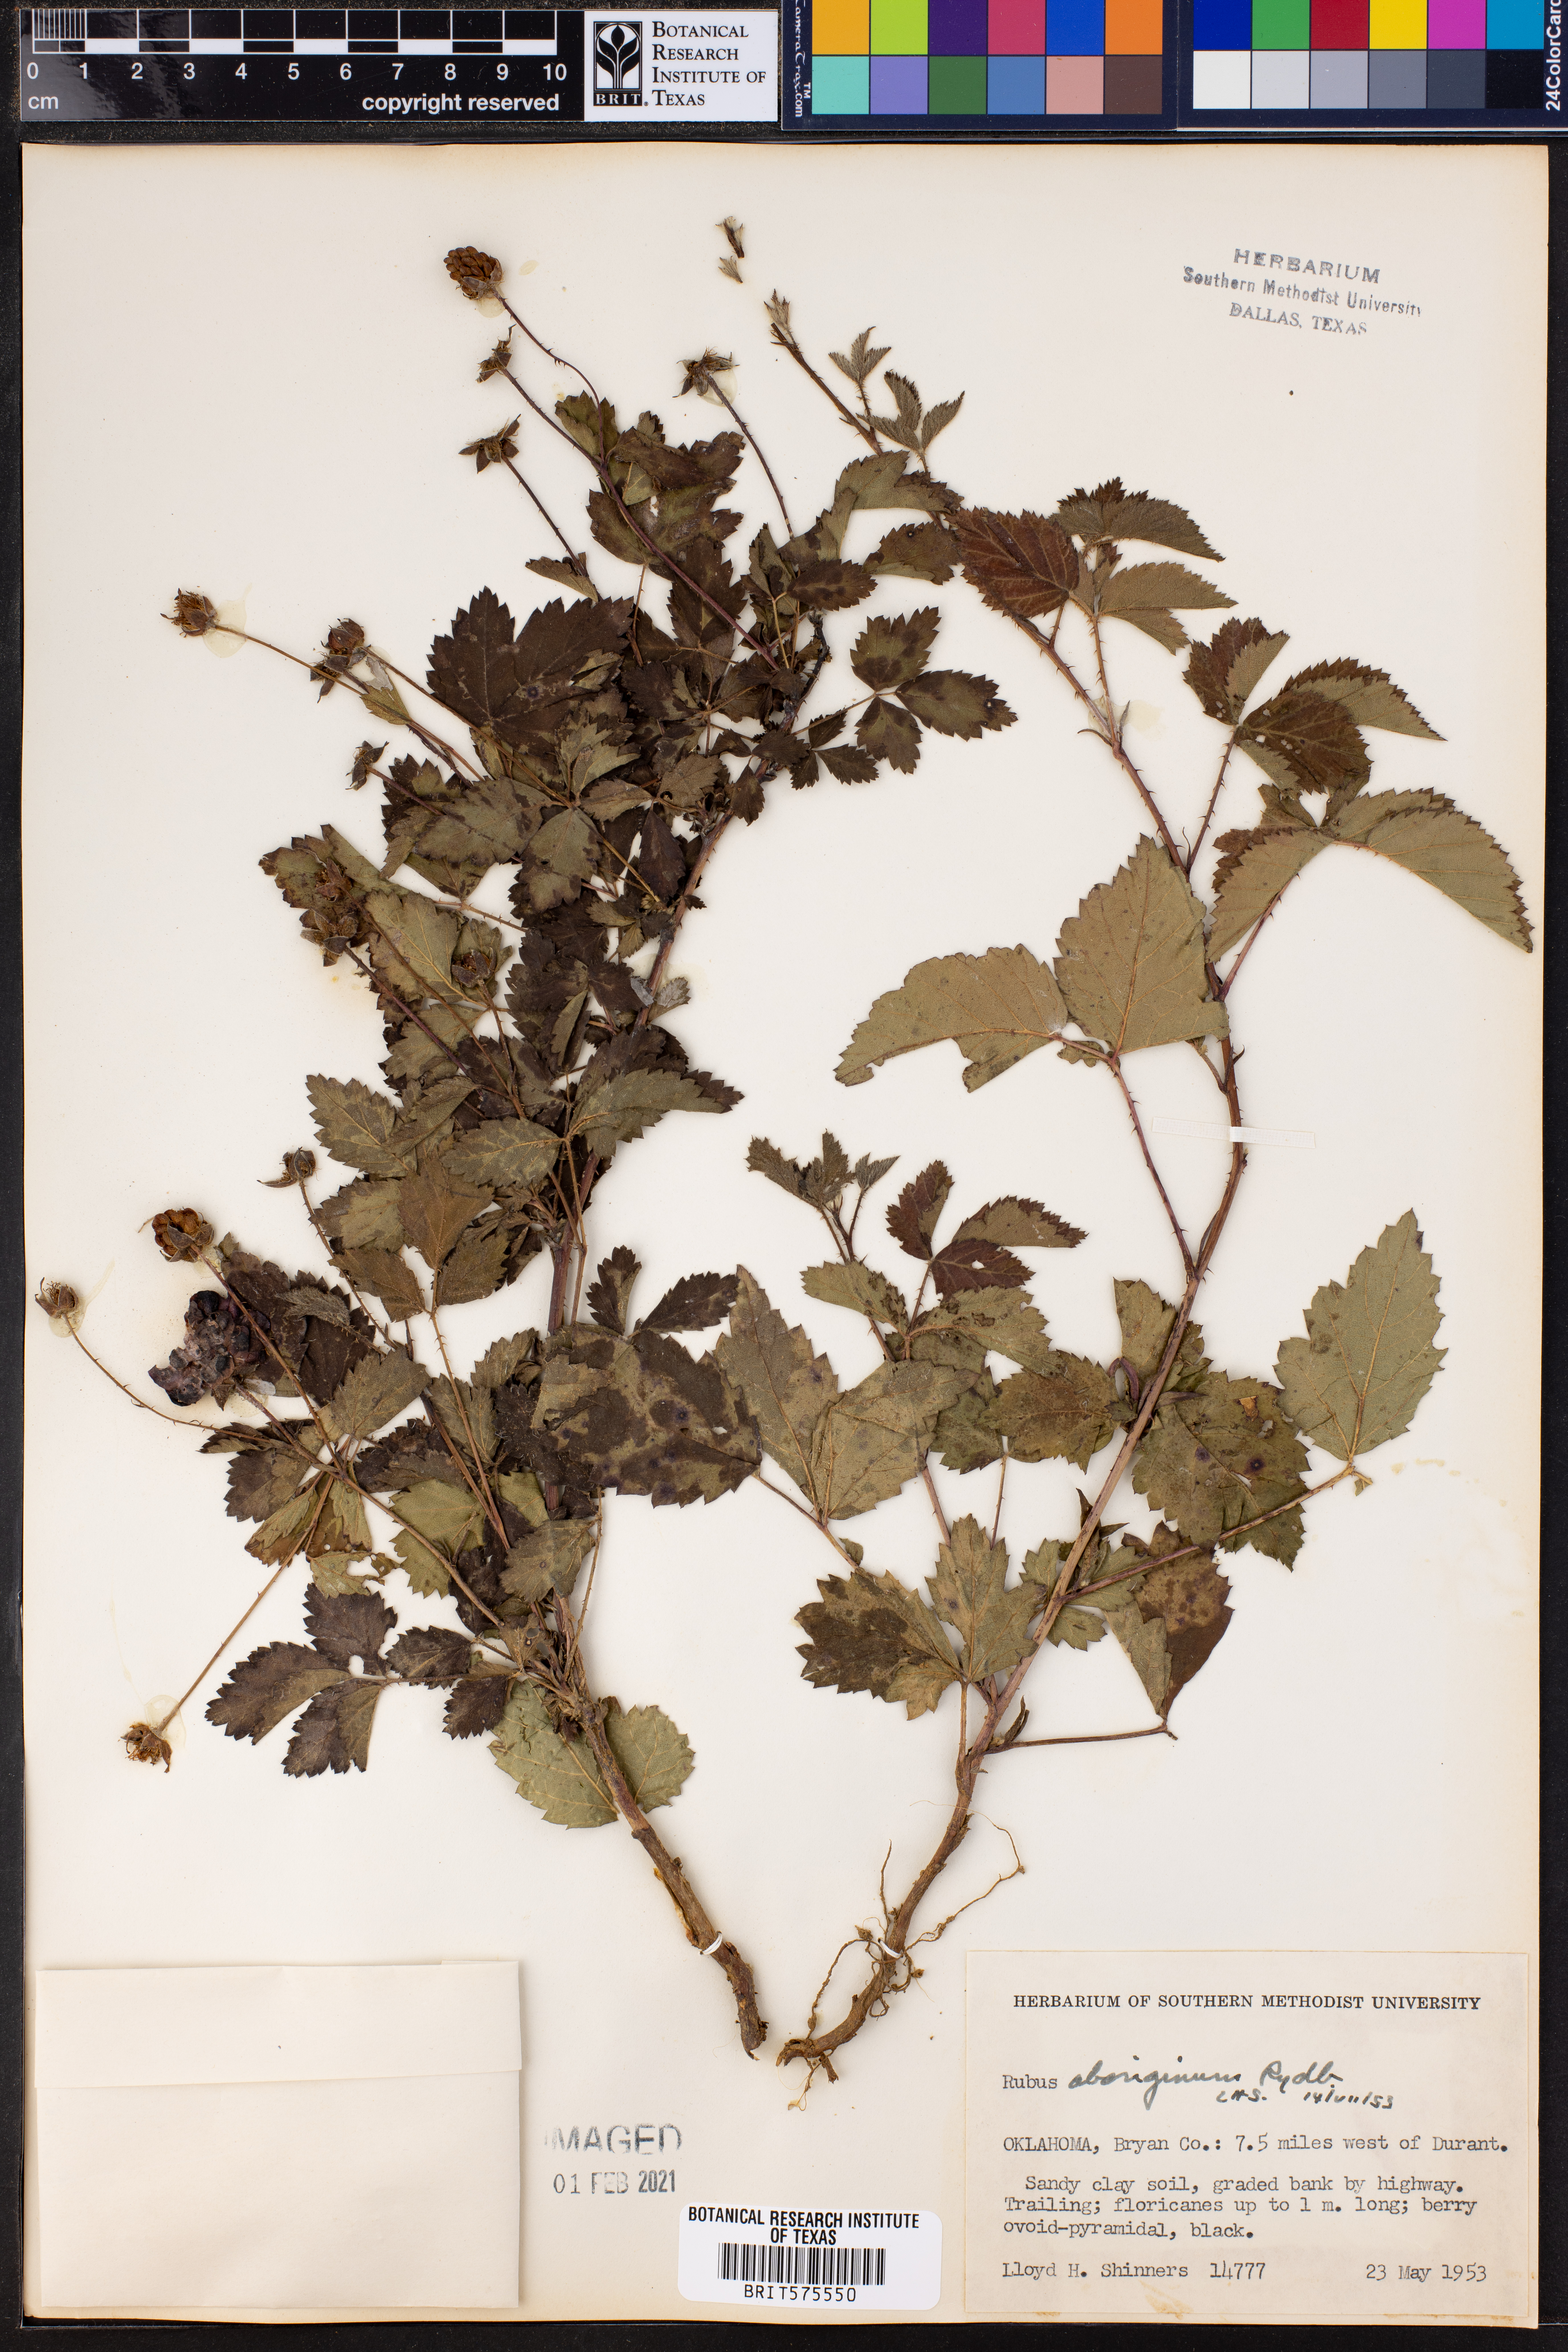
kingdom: Plantae
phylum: Tracheophyta
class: Magnoliopsida
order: Rosales
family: Rosaceae
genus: Rubus
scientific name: Rubus aboriginum
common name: Mayes dewberry
